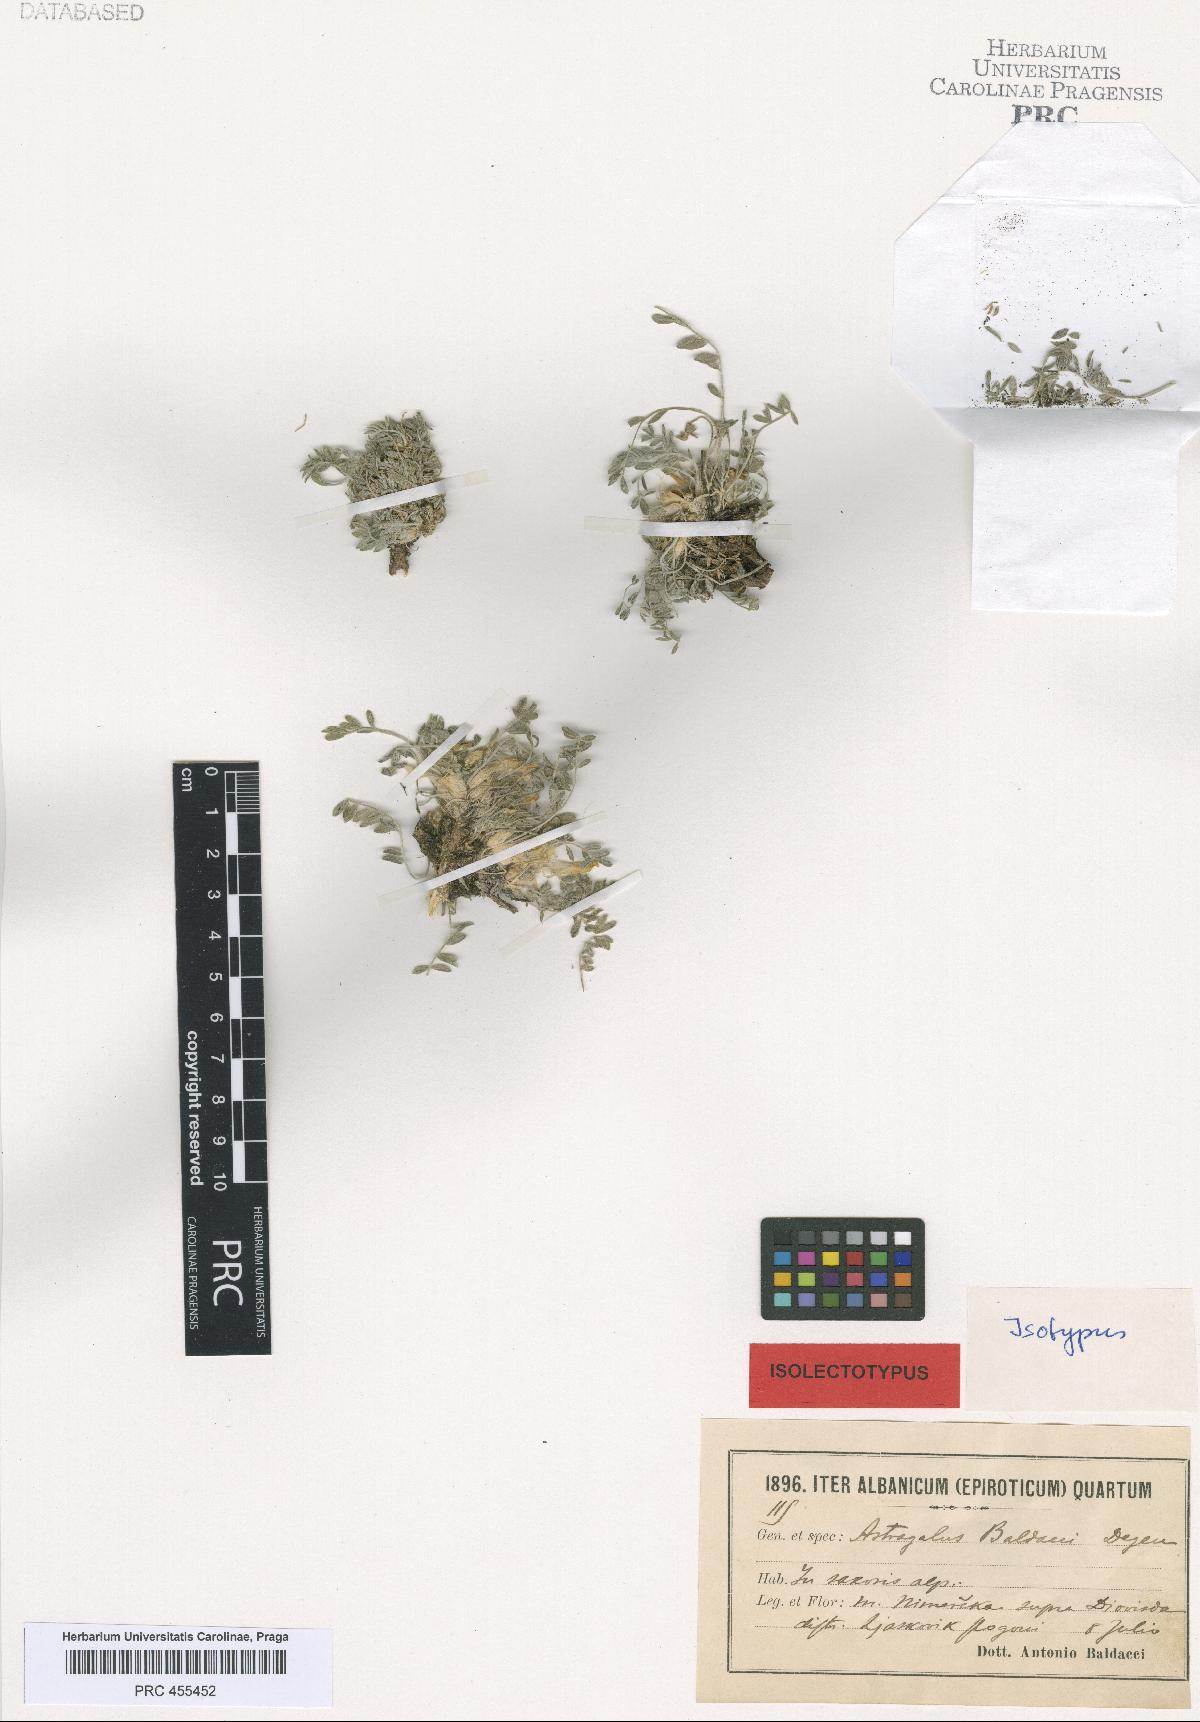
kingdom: Plantae
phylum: Tracheophyta
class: Magnoliopsida
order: Fabales
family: Fabaceae
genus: Astragalus
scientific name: Astragalus baldaccii
